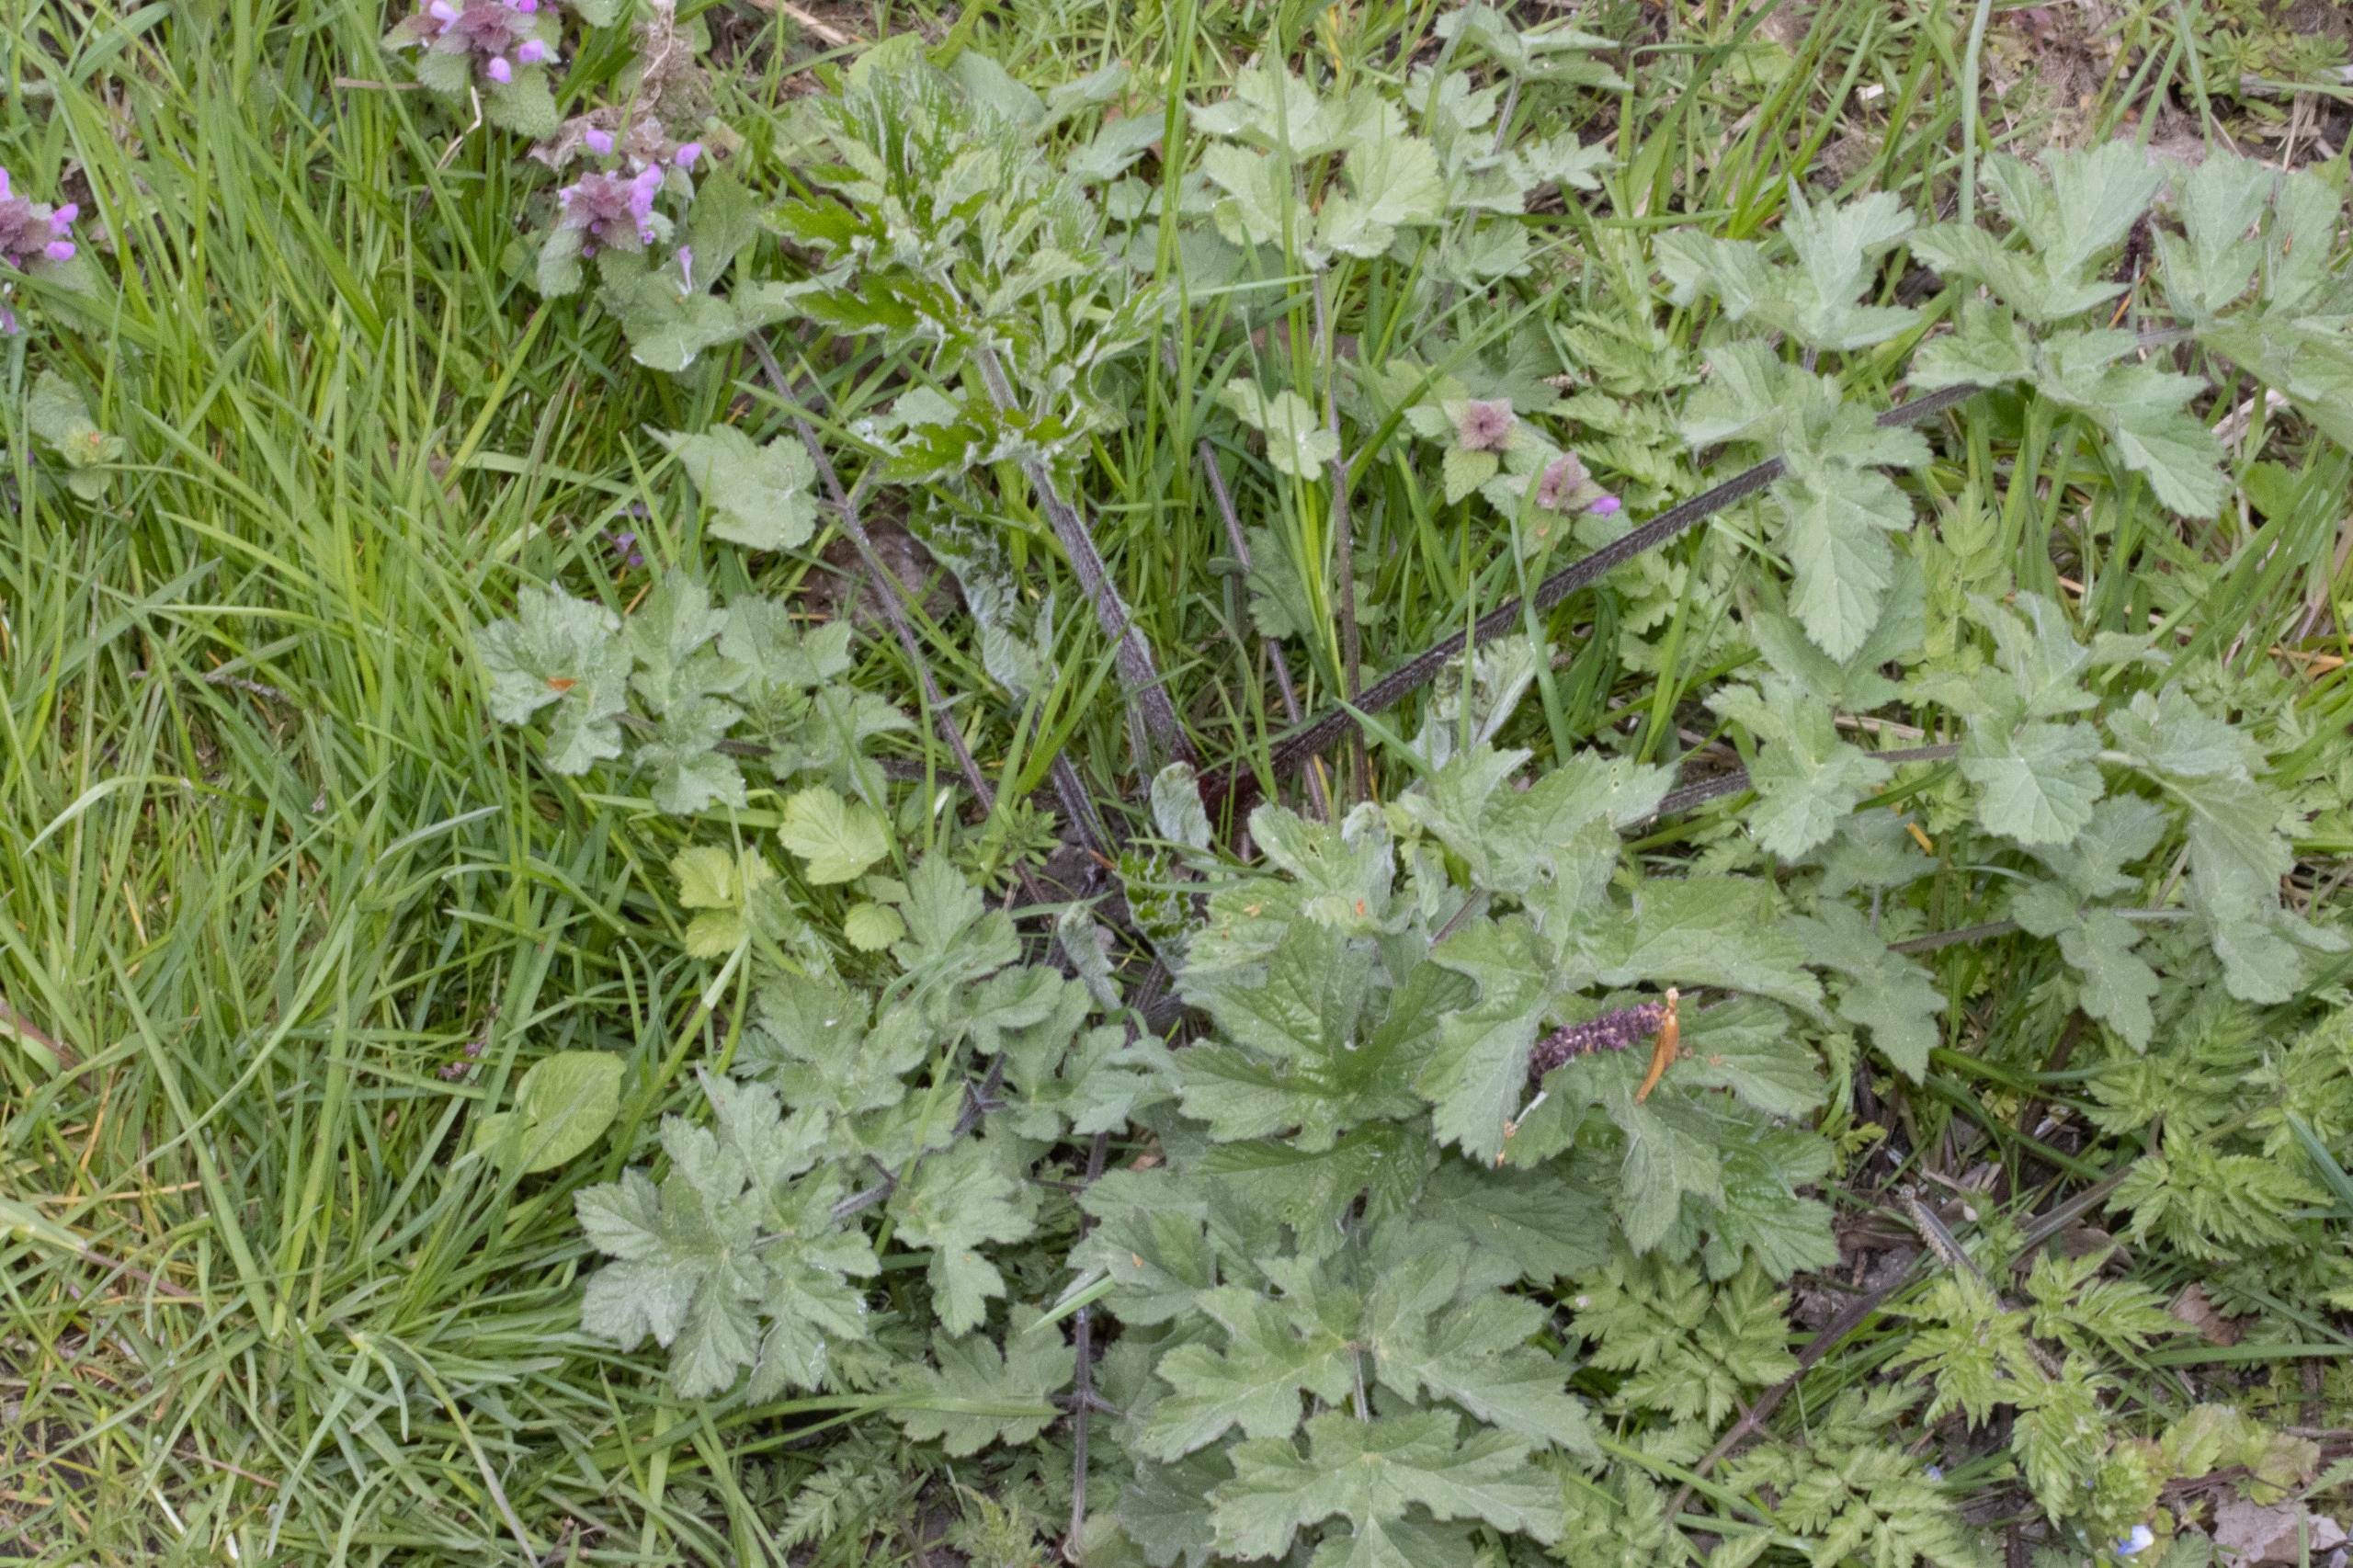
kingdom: Plantae
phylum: Tracheophyta
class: Magnoliopsida
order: Apiales
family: Apiaceae
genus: Heracleum
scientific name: Heracleum sphondylium
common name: Almindelig bjørneklo
